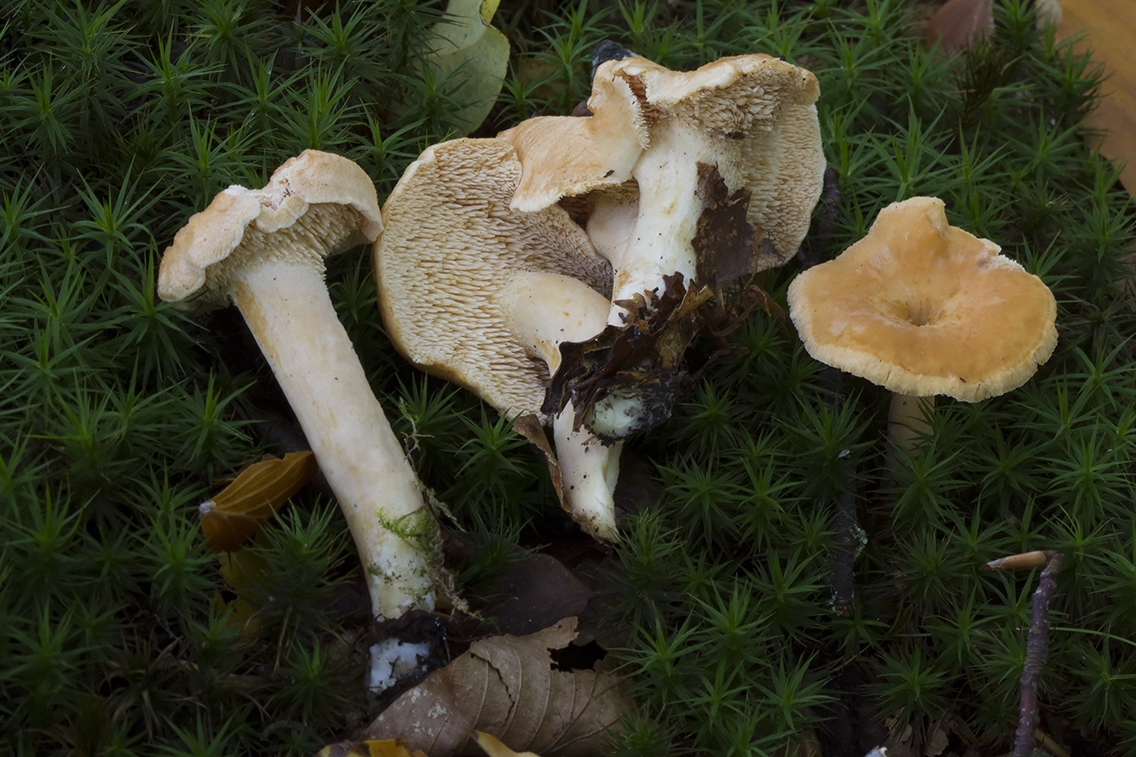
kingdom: Fungi
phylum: Basidiomycota
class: Agaricomycetes
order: Cantharellales
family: Hydnaceae
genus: Hydnum
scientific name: Hydnum umbilicatum
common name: navle-pigsvamp
